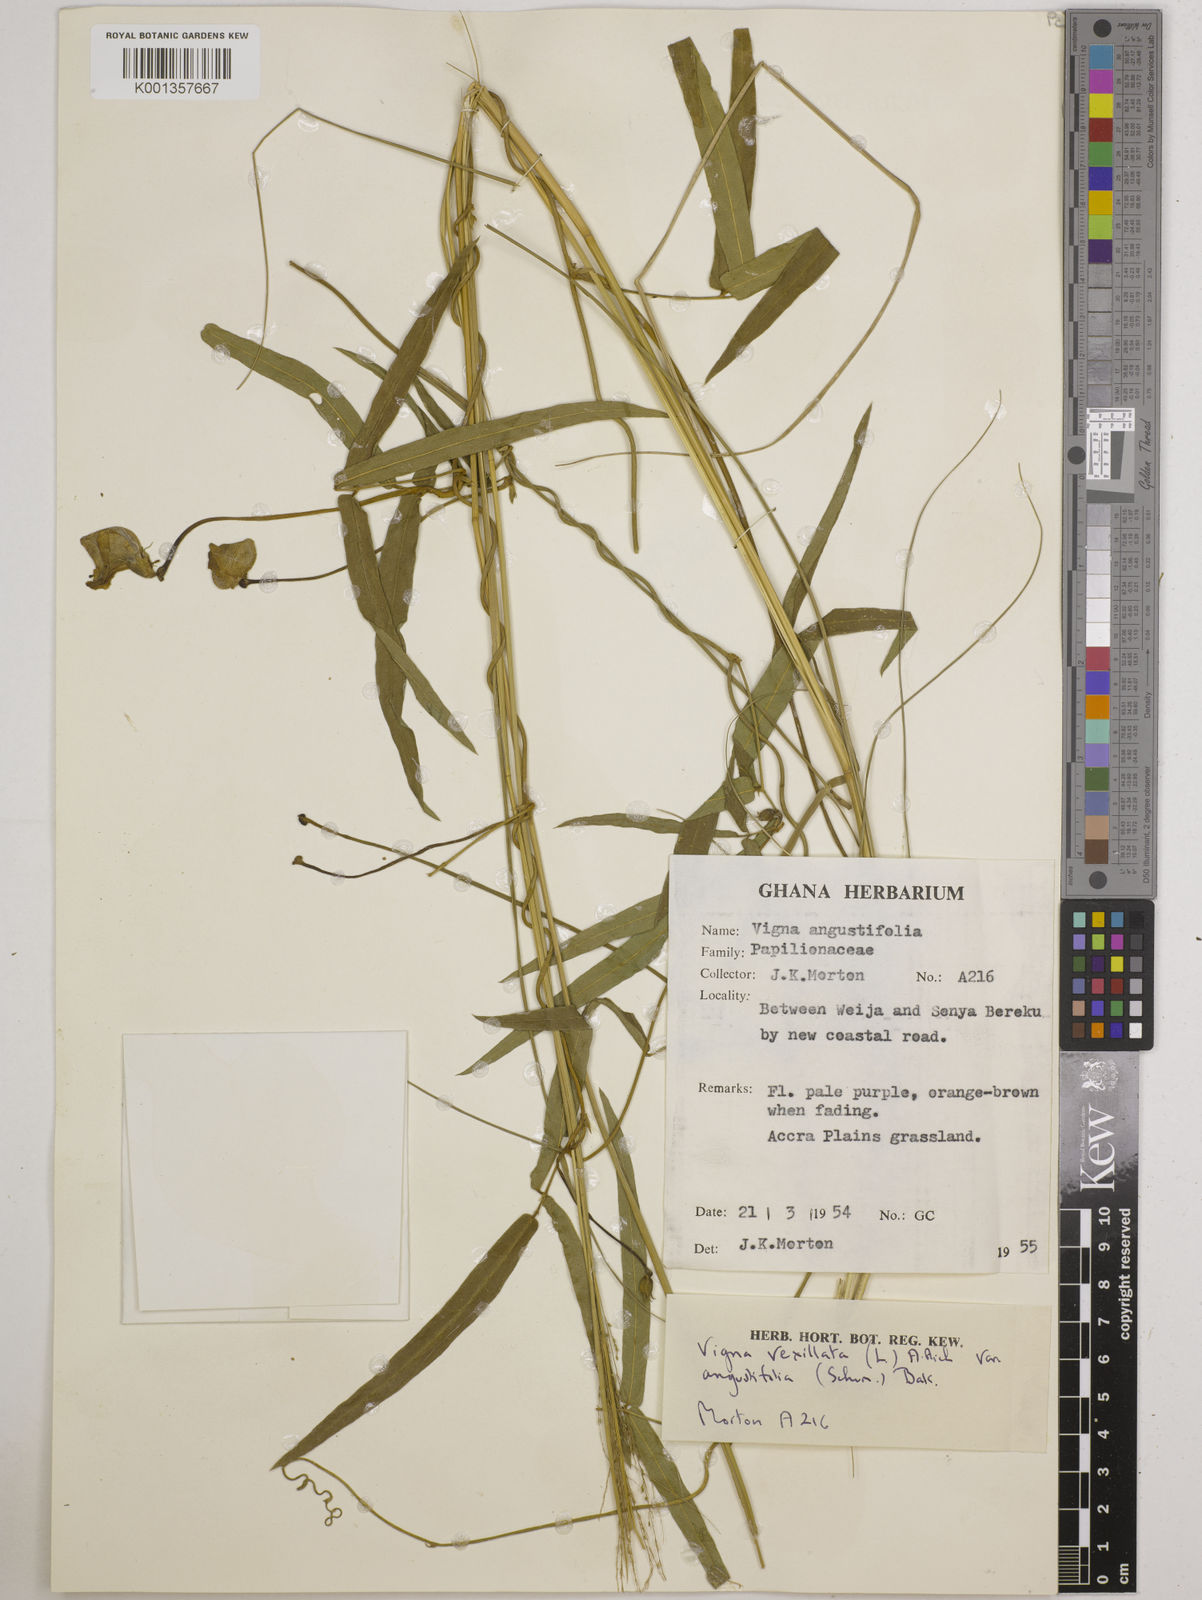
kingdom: Plantae
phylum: Tracheophyta
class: Magnoliopsida
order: Fabales
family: Fabaceae
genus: Vigna
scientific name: Vigna vexillata
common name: Zombi pea
